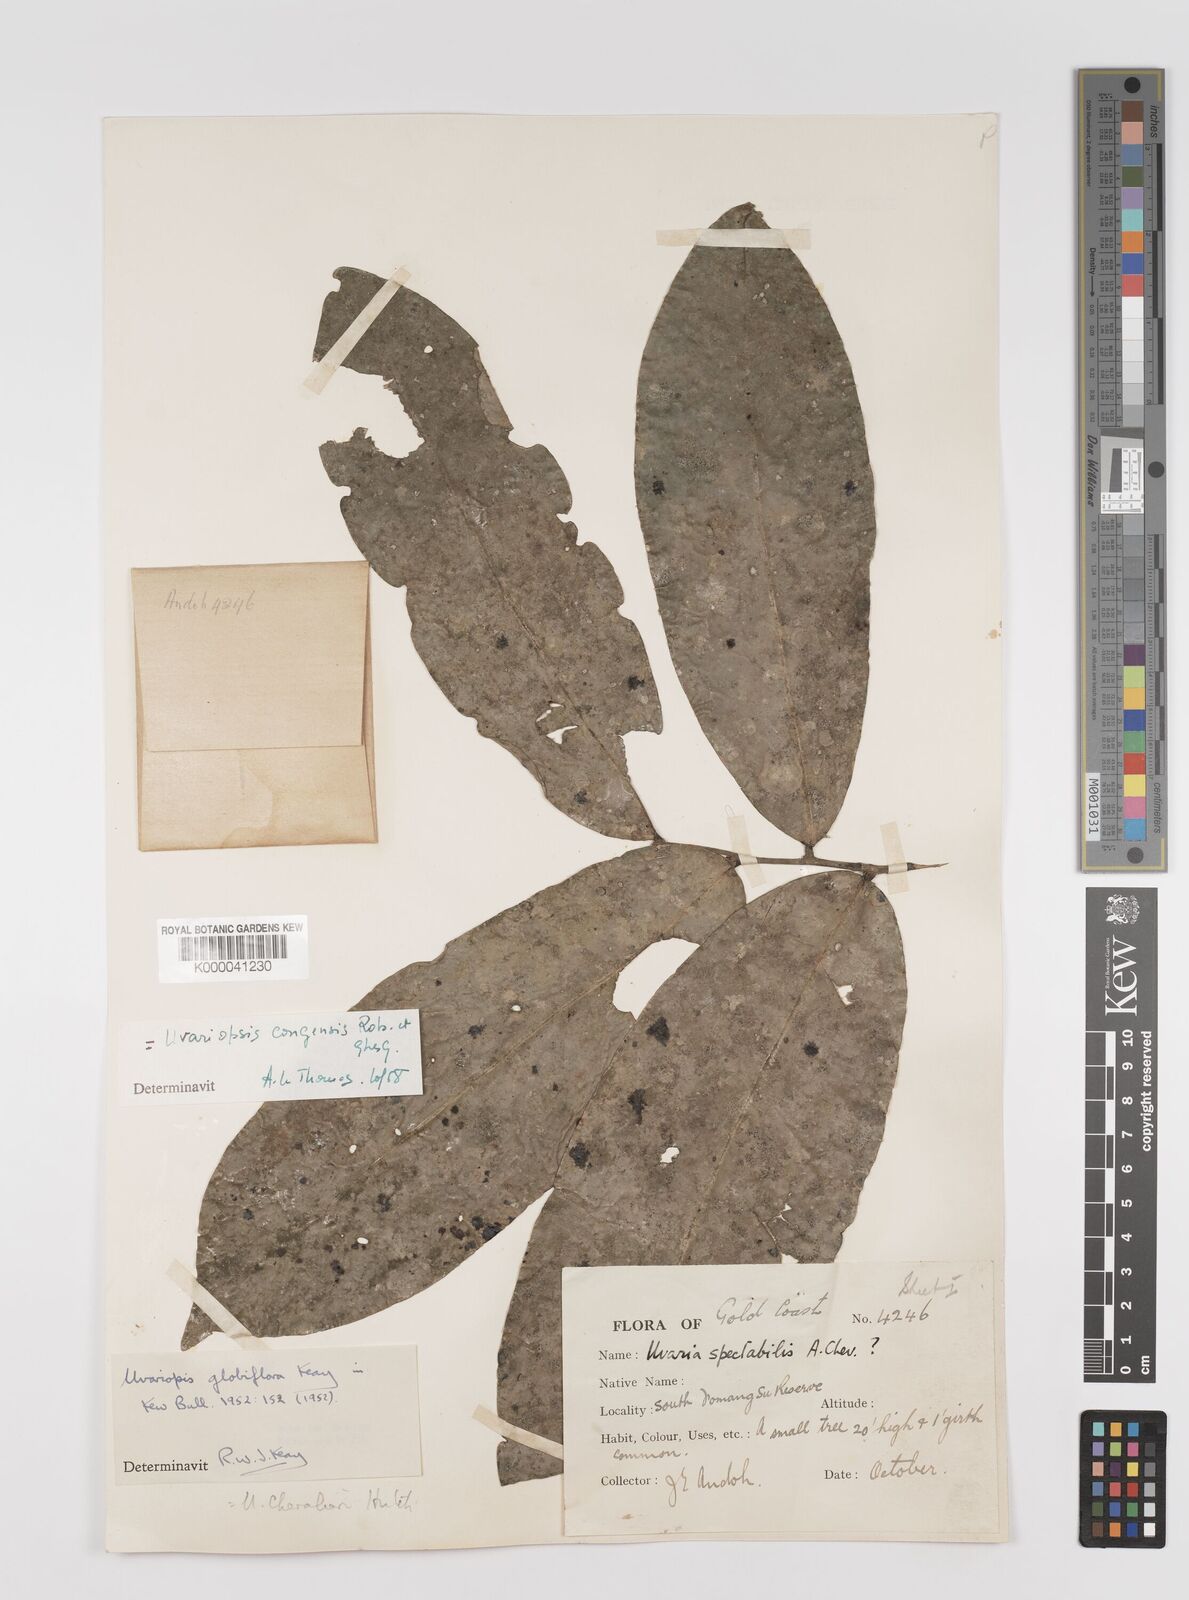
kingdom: Plantae
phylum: Tracheophyta
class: Magnoliopsida
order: Magnoliales
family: Annonaceae
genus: Uvaria
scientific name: Uvaria
